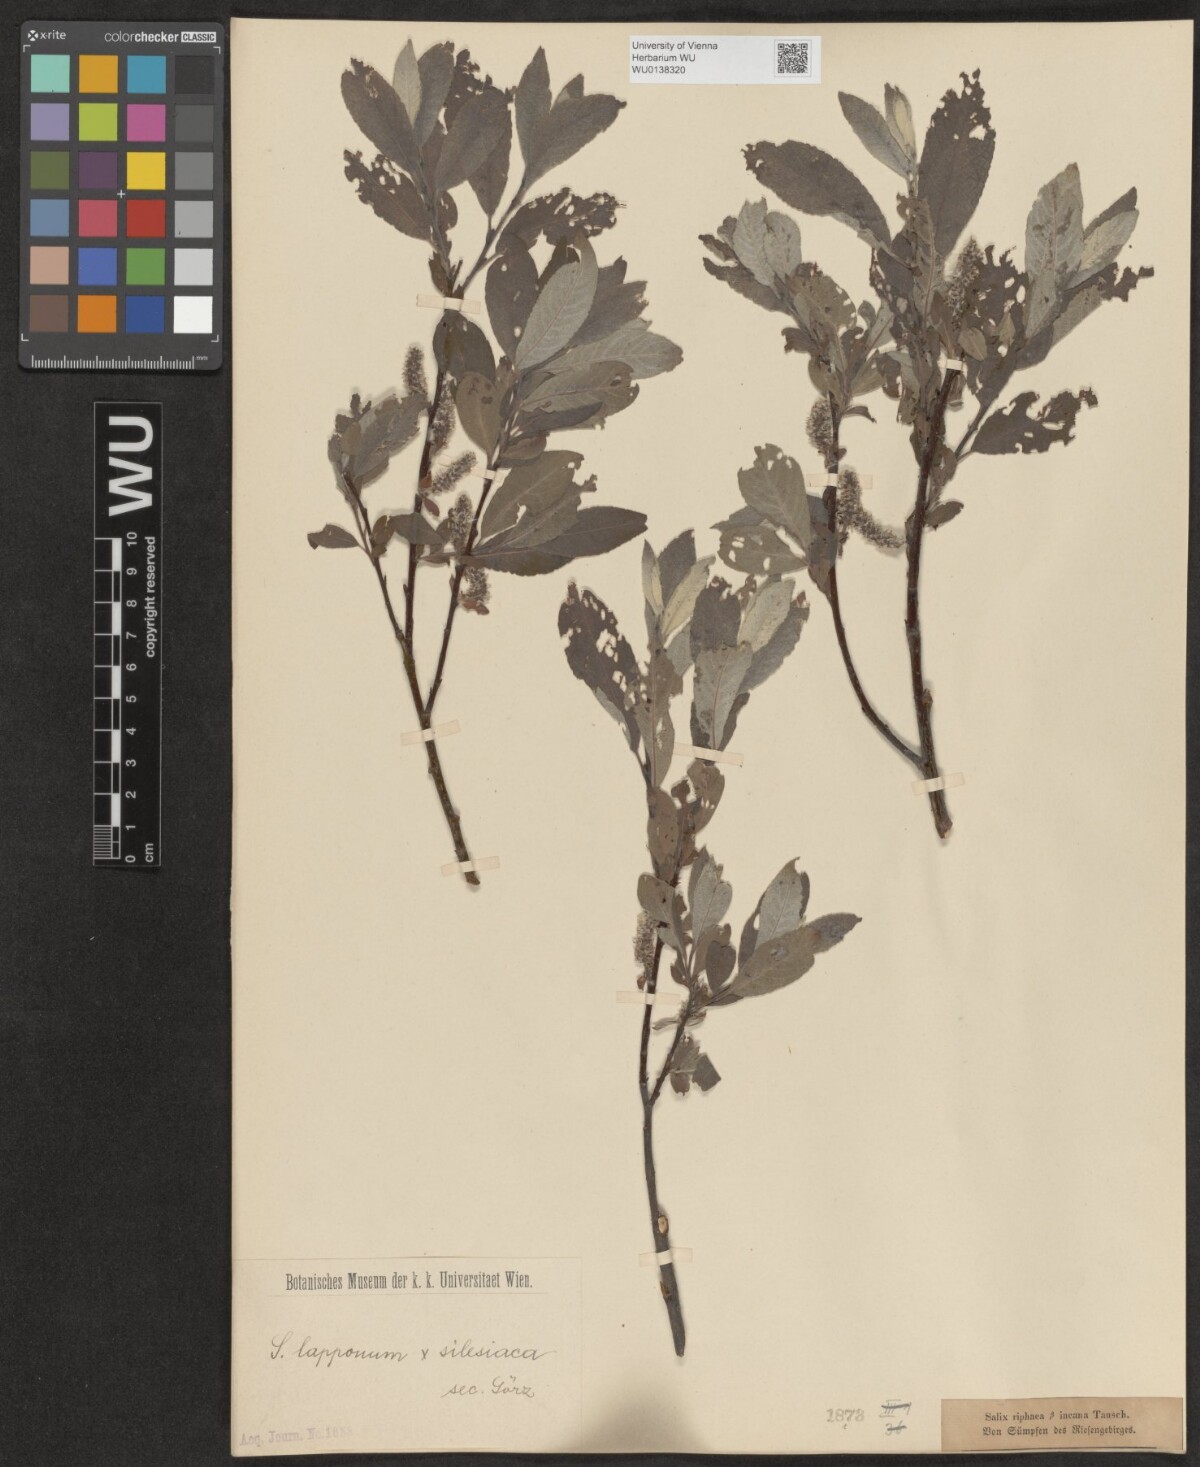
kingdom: Plantae
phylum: Tracheophyta
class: Magnoliopsida
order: Malpighiales
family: Salicaceae
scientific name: Salicaceae
